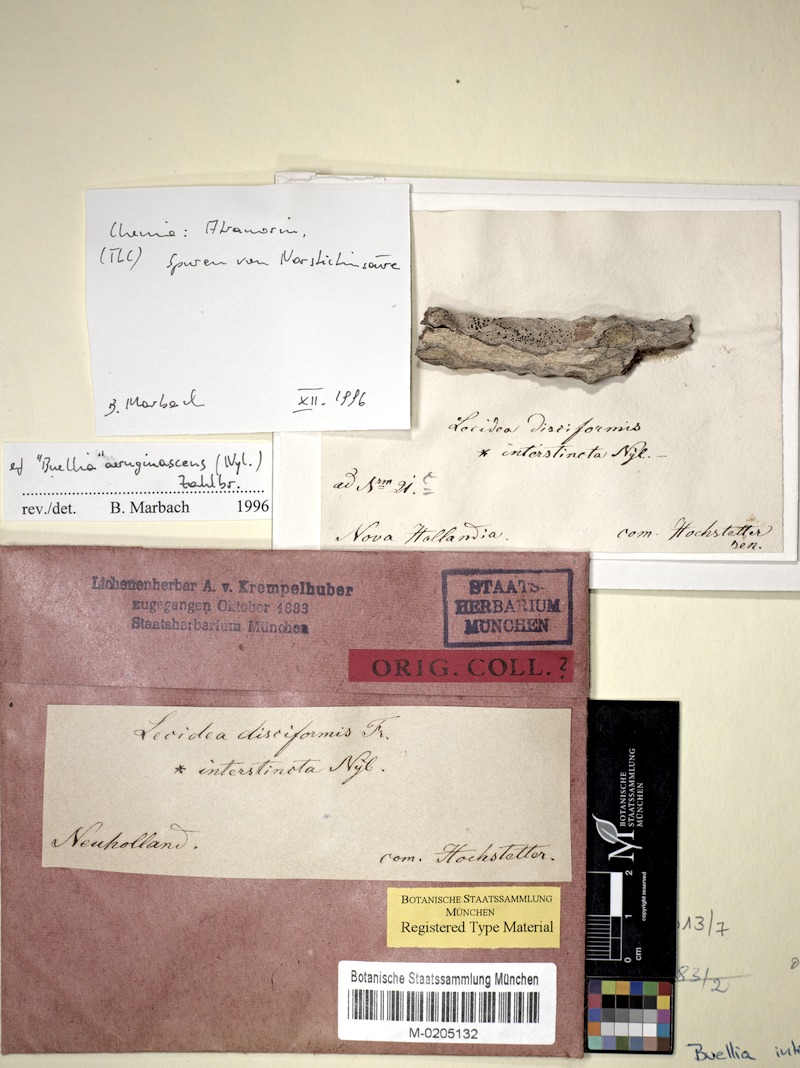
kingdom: Fungi
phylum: Ascomycota
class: Lecanoromycetes
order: Lecideales
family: Lecideaceae
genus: Lecidea
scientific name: Lecidea interstincta
